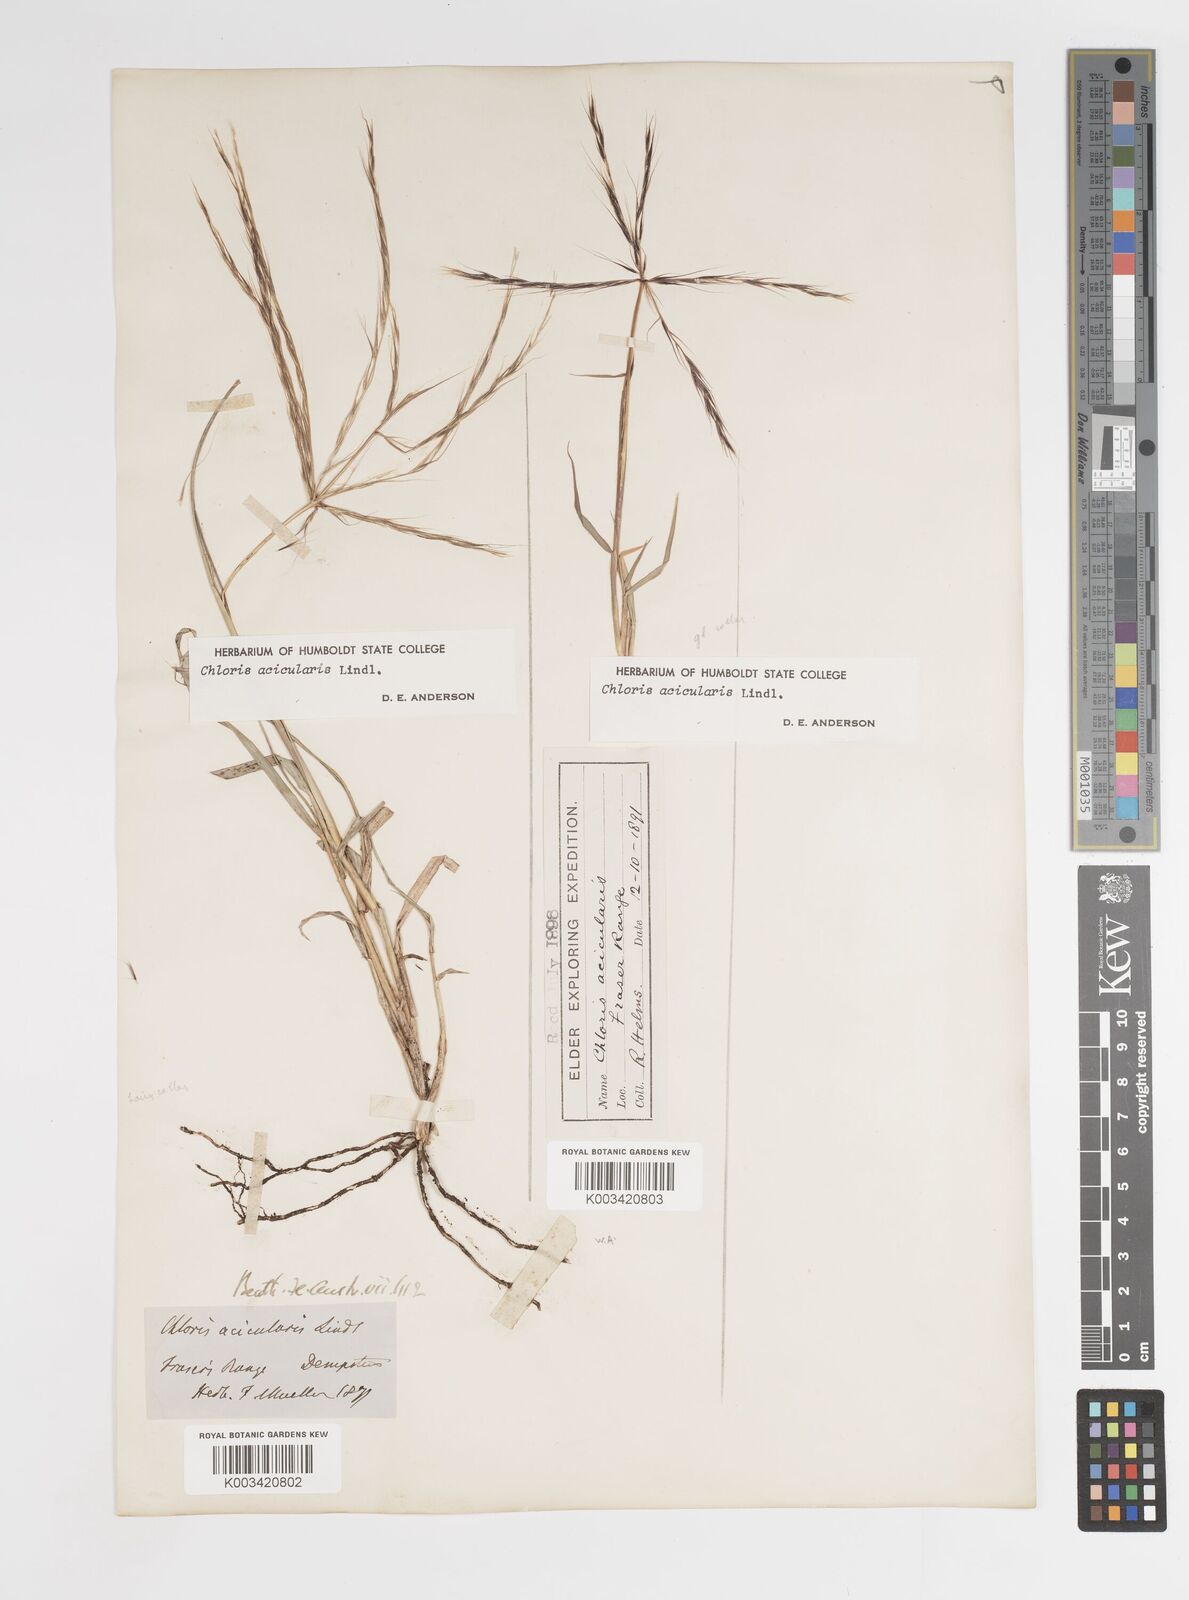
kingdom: Plantae
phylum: Tracheophyta
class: Liliopsida
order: Poales
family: Poaceae
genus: Enteropogon
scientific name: Enteropogon acicularis
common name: Curly windmill grass
